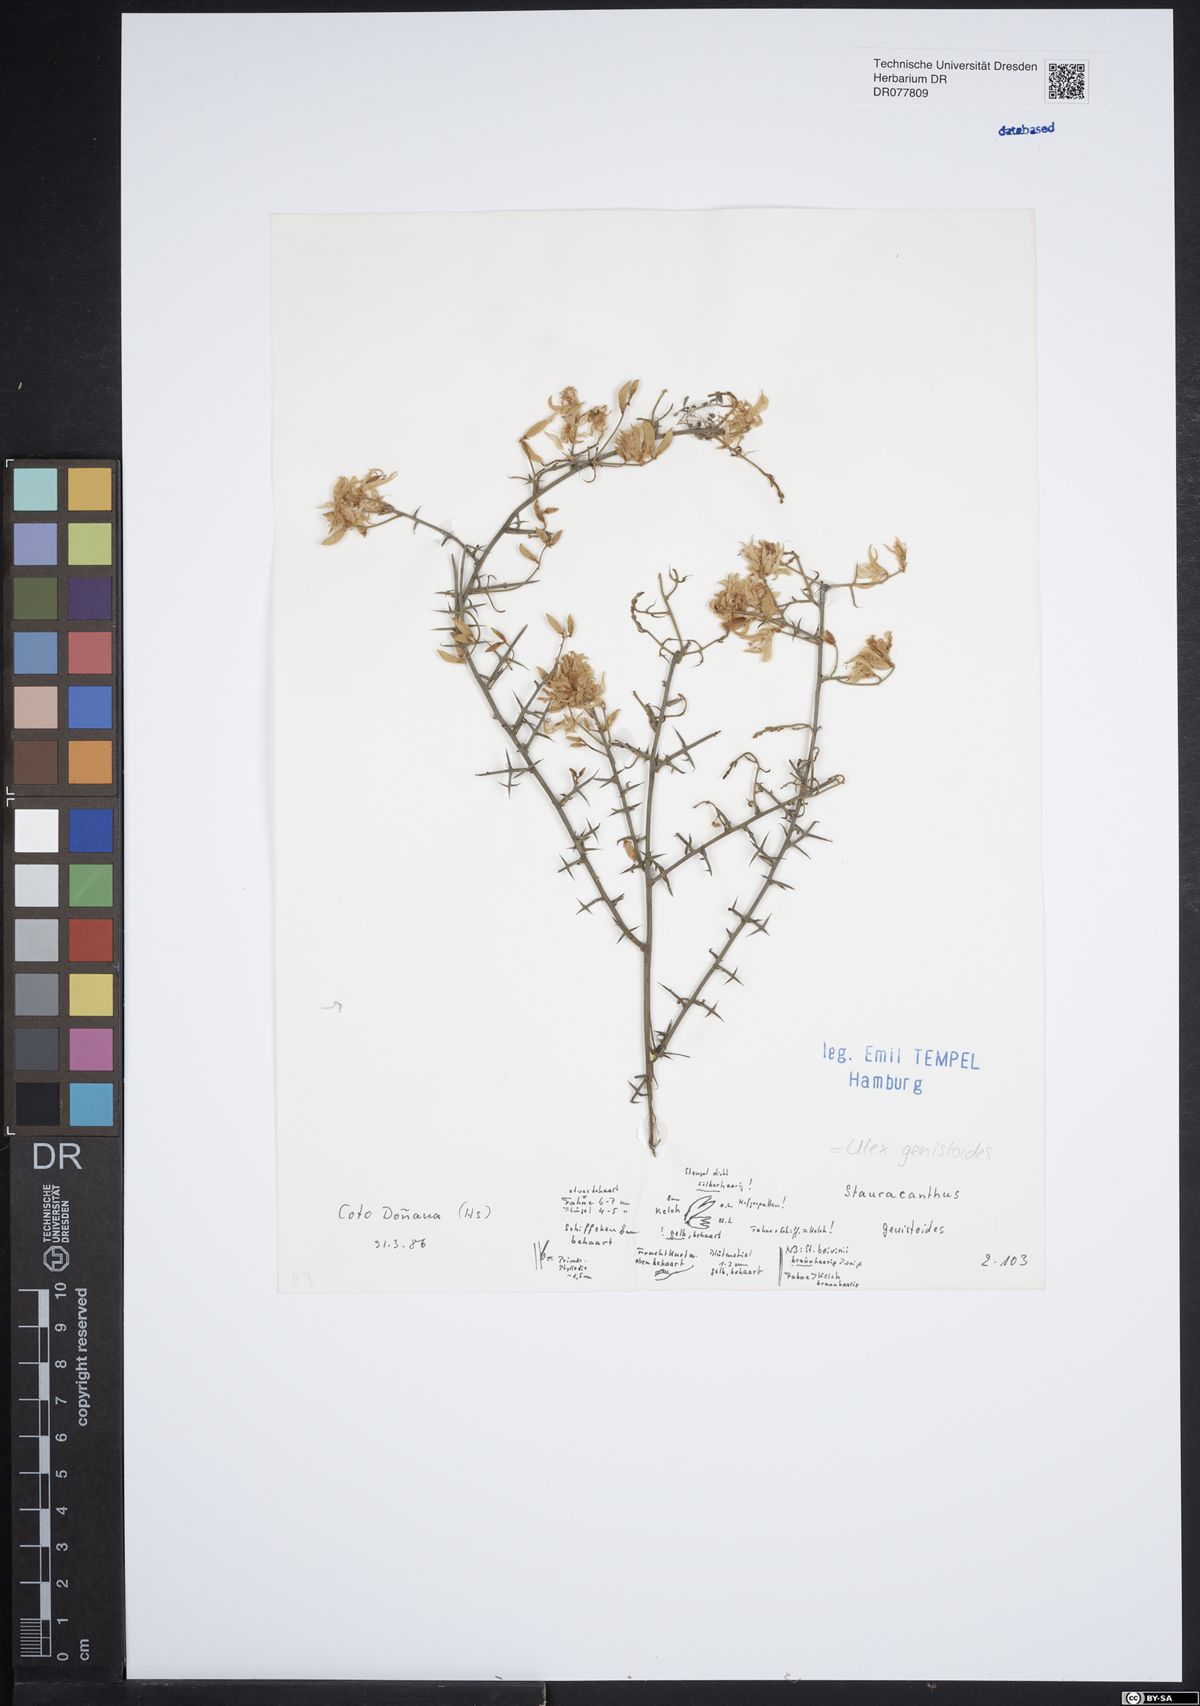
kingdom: Plantae
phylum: Tracheophyta
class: Magnoliopsida
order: Fabales
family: Fabaceae
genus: Stauracanthus
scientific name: Stauracanthus genistoides
